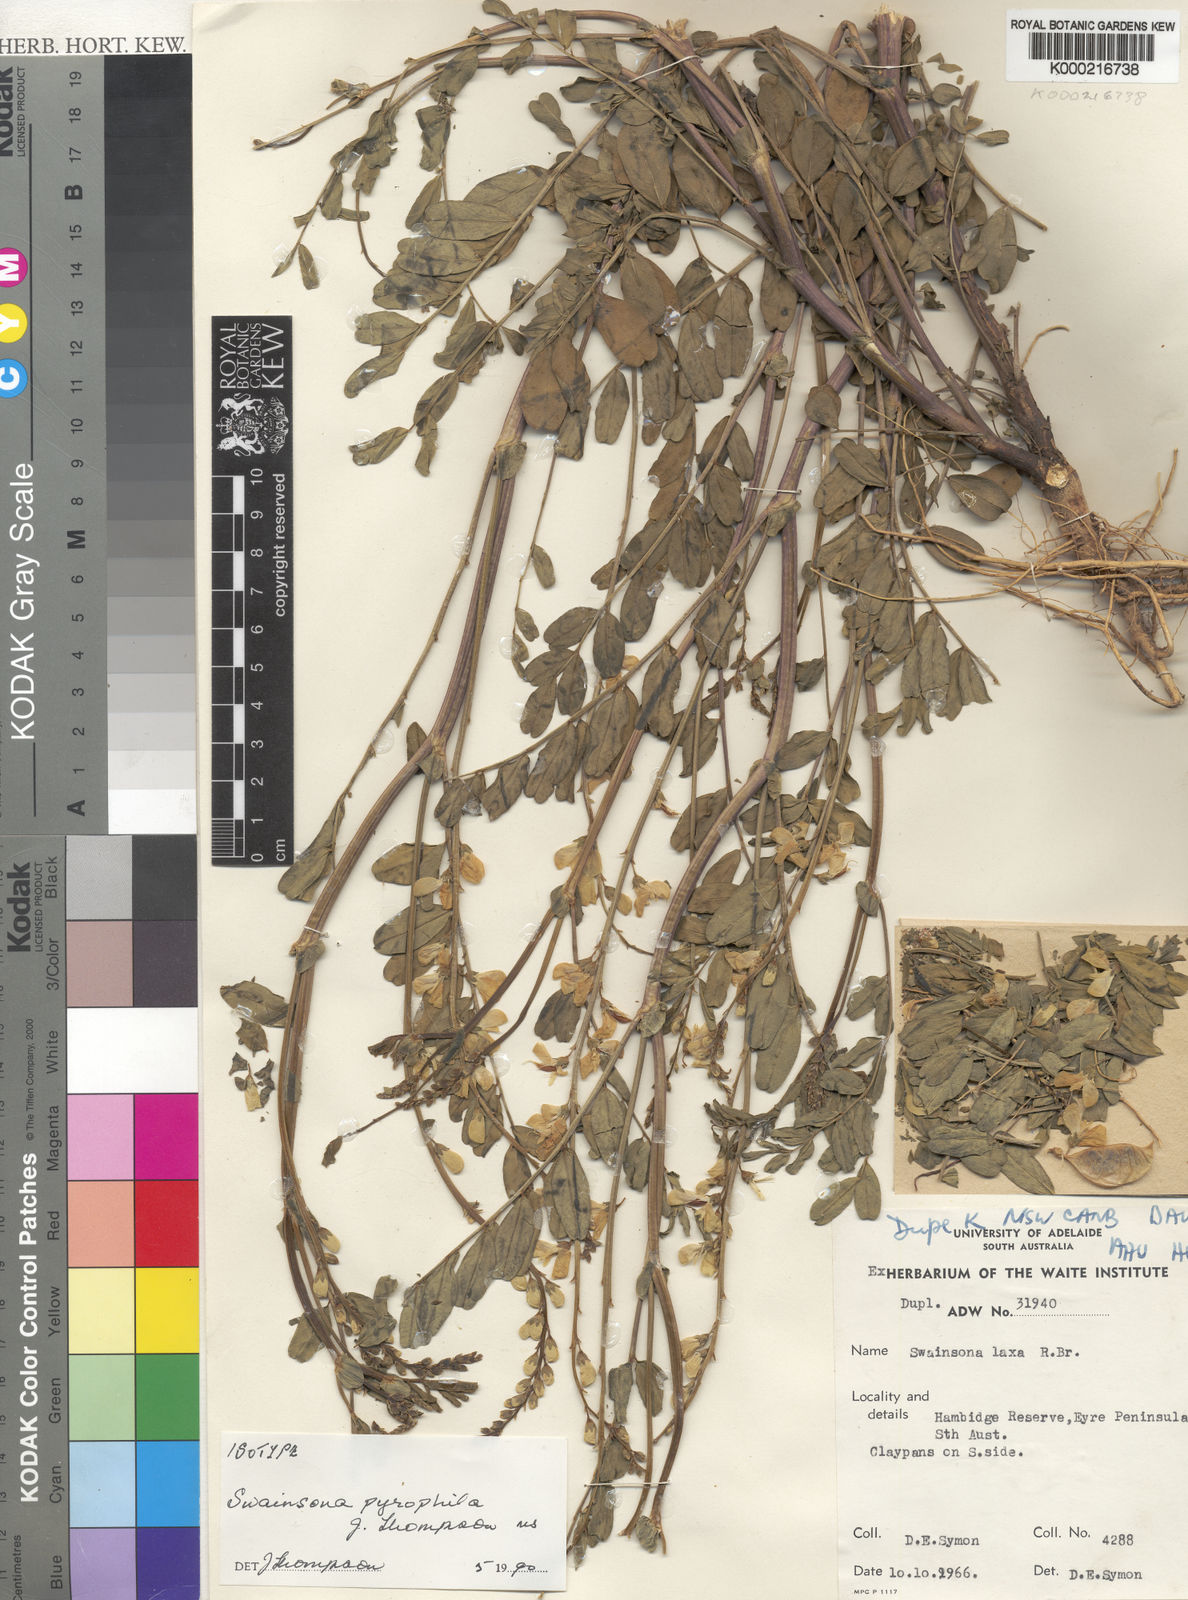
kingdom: Plantae
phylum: Tracheophyta
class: Magnoliopsida
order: Fabales
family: Fabaceae
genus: Swainsona
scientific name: Swainsona pyrophila
